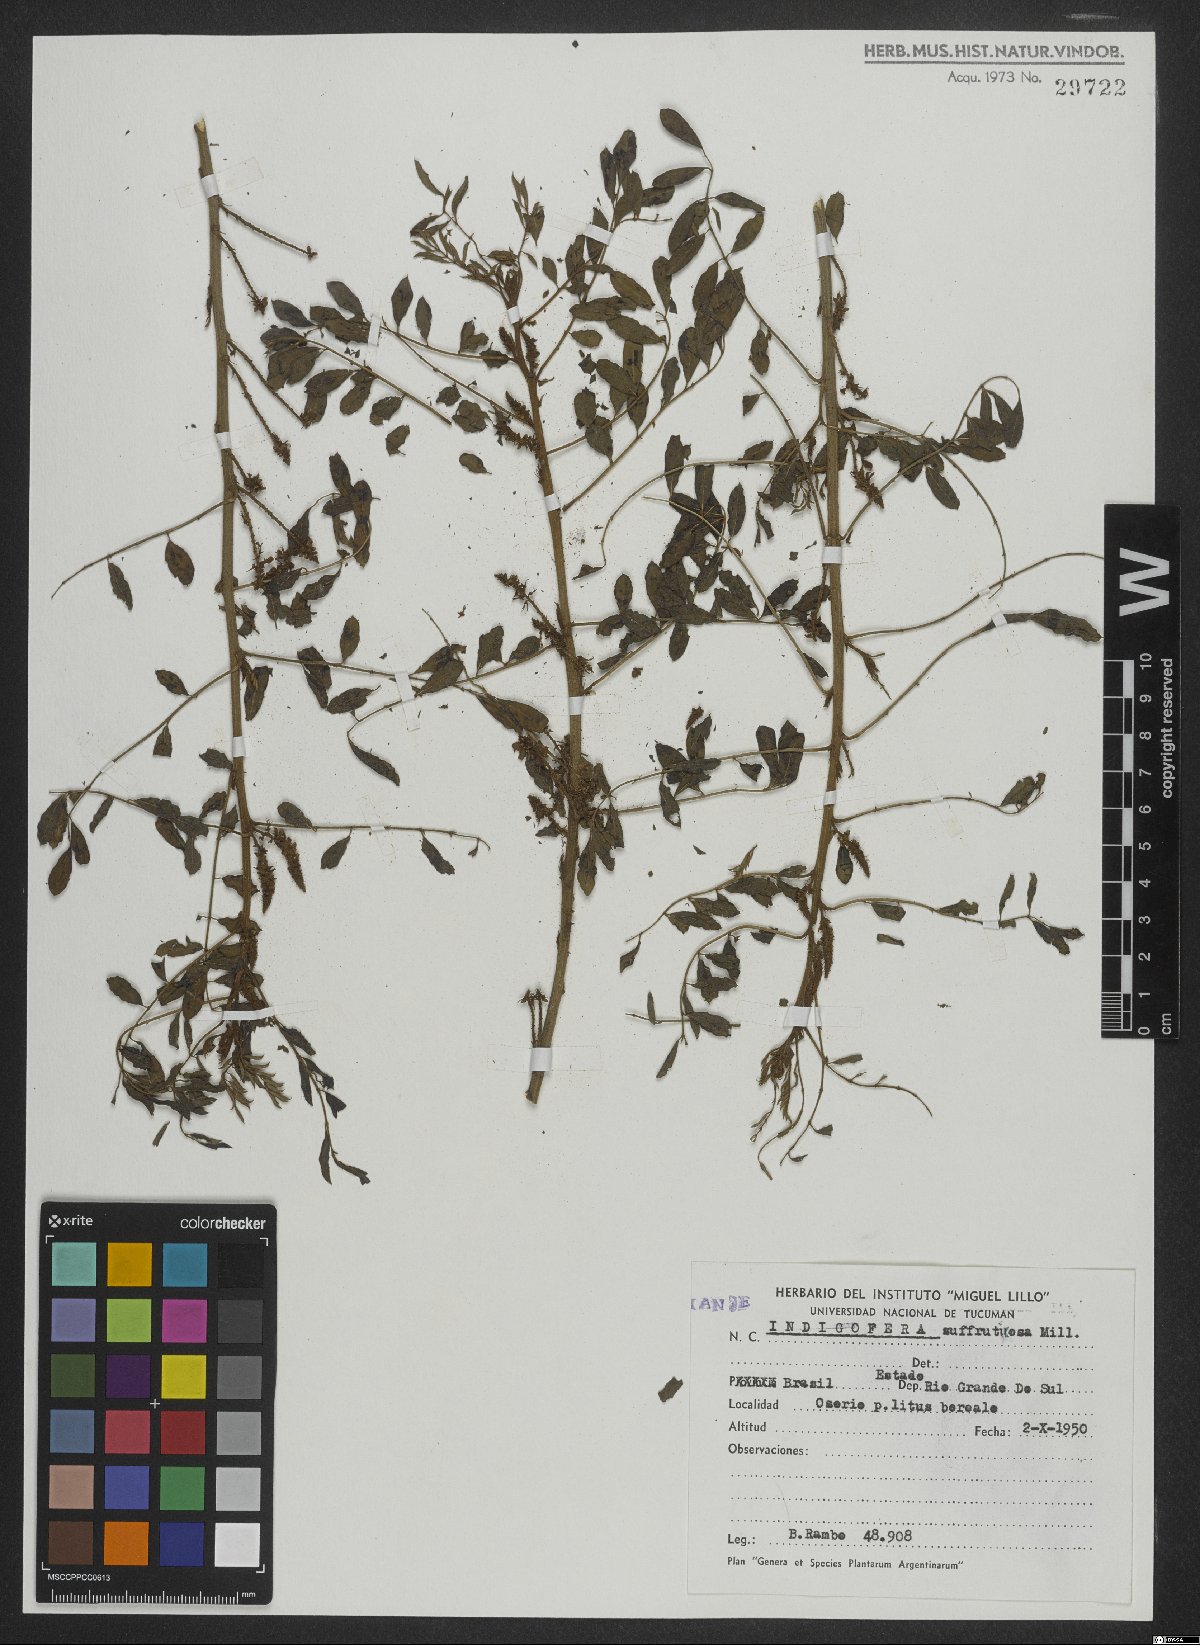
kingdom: Plantae
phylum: Tracheophyta
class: Magnoliopsida
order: Fabales
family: Fabaceae
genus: Indigofera
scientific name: Indigofera suffruticosa
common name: Anil de pasto
